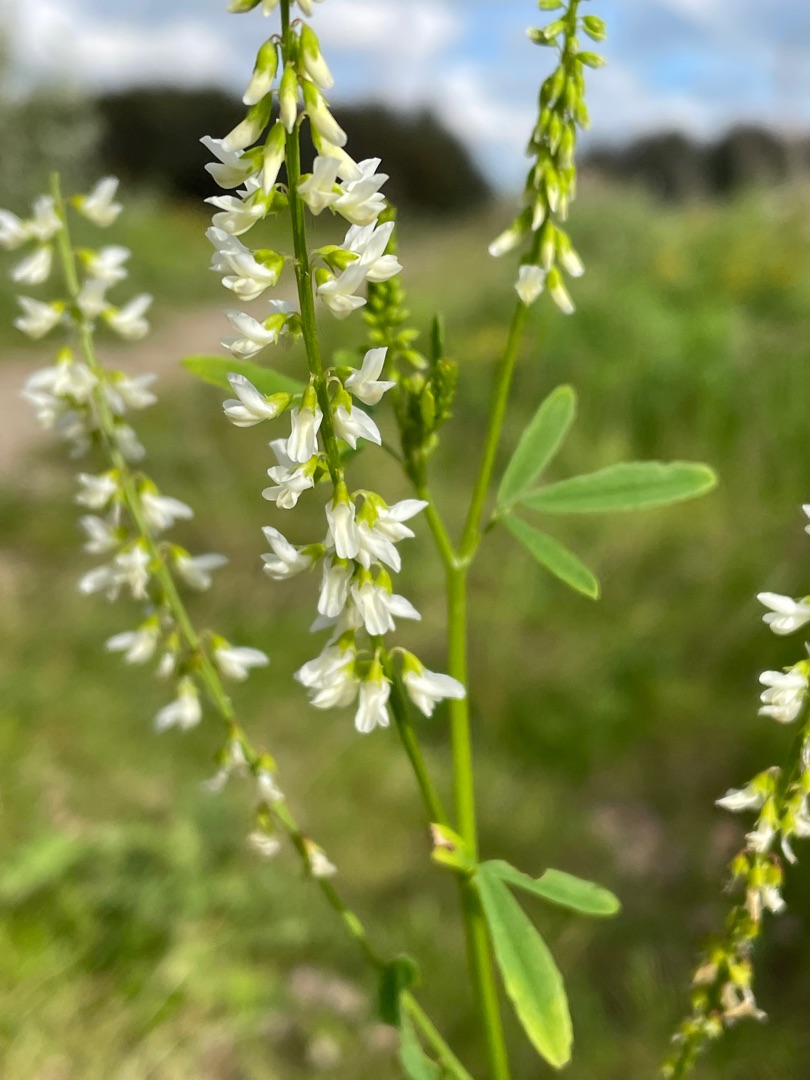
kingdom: Plantae
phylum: Tracheophyta
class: Magnoliopsida
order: Fabales
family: Fabaceae
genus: Melilotus
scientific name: Melilotus albus
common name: Hvid stenkløver
